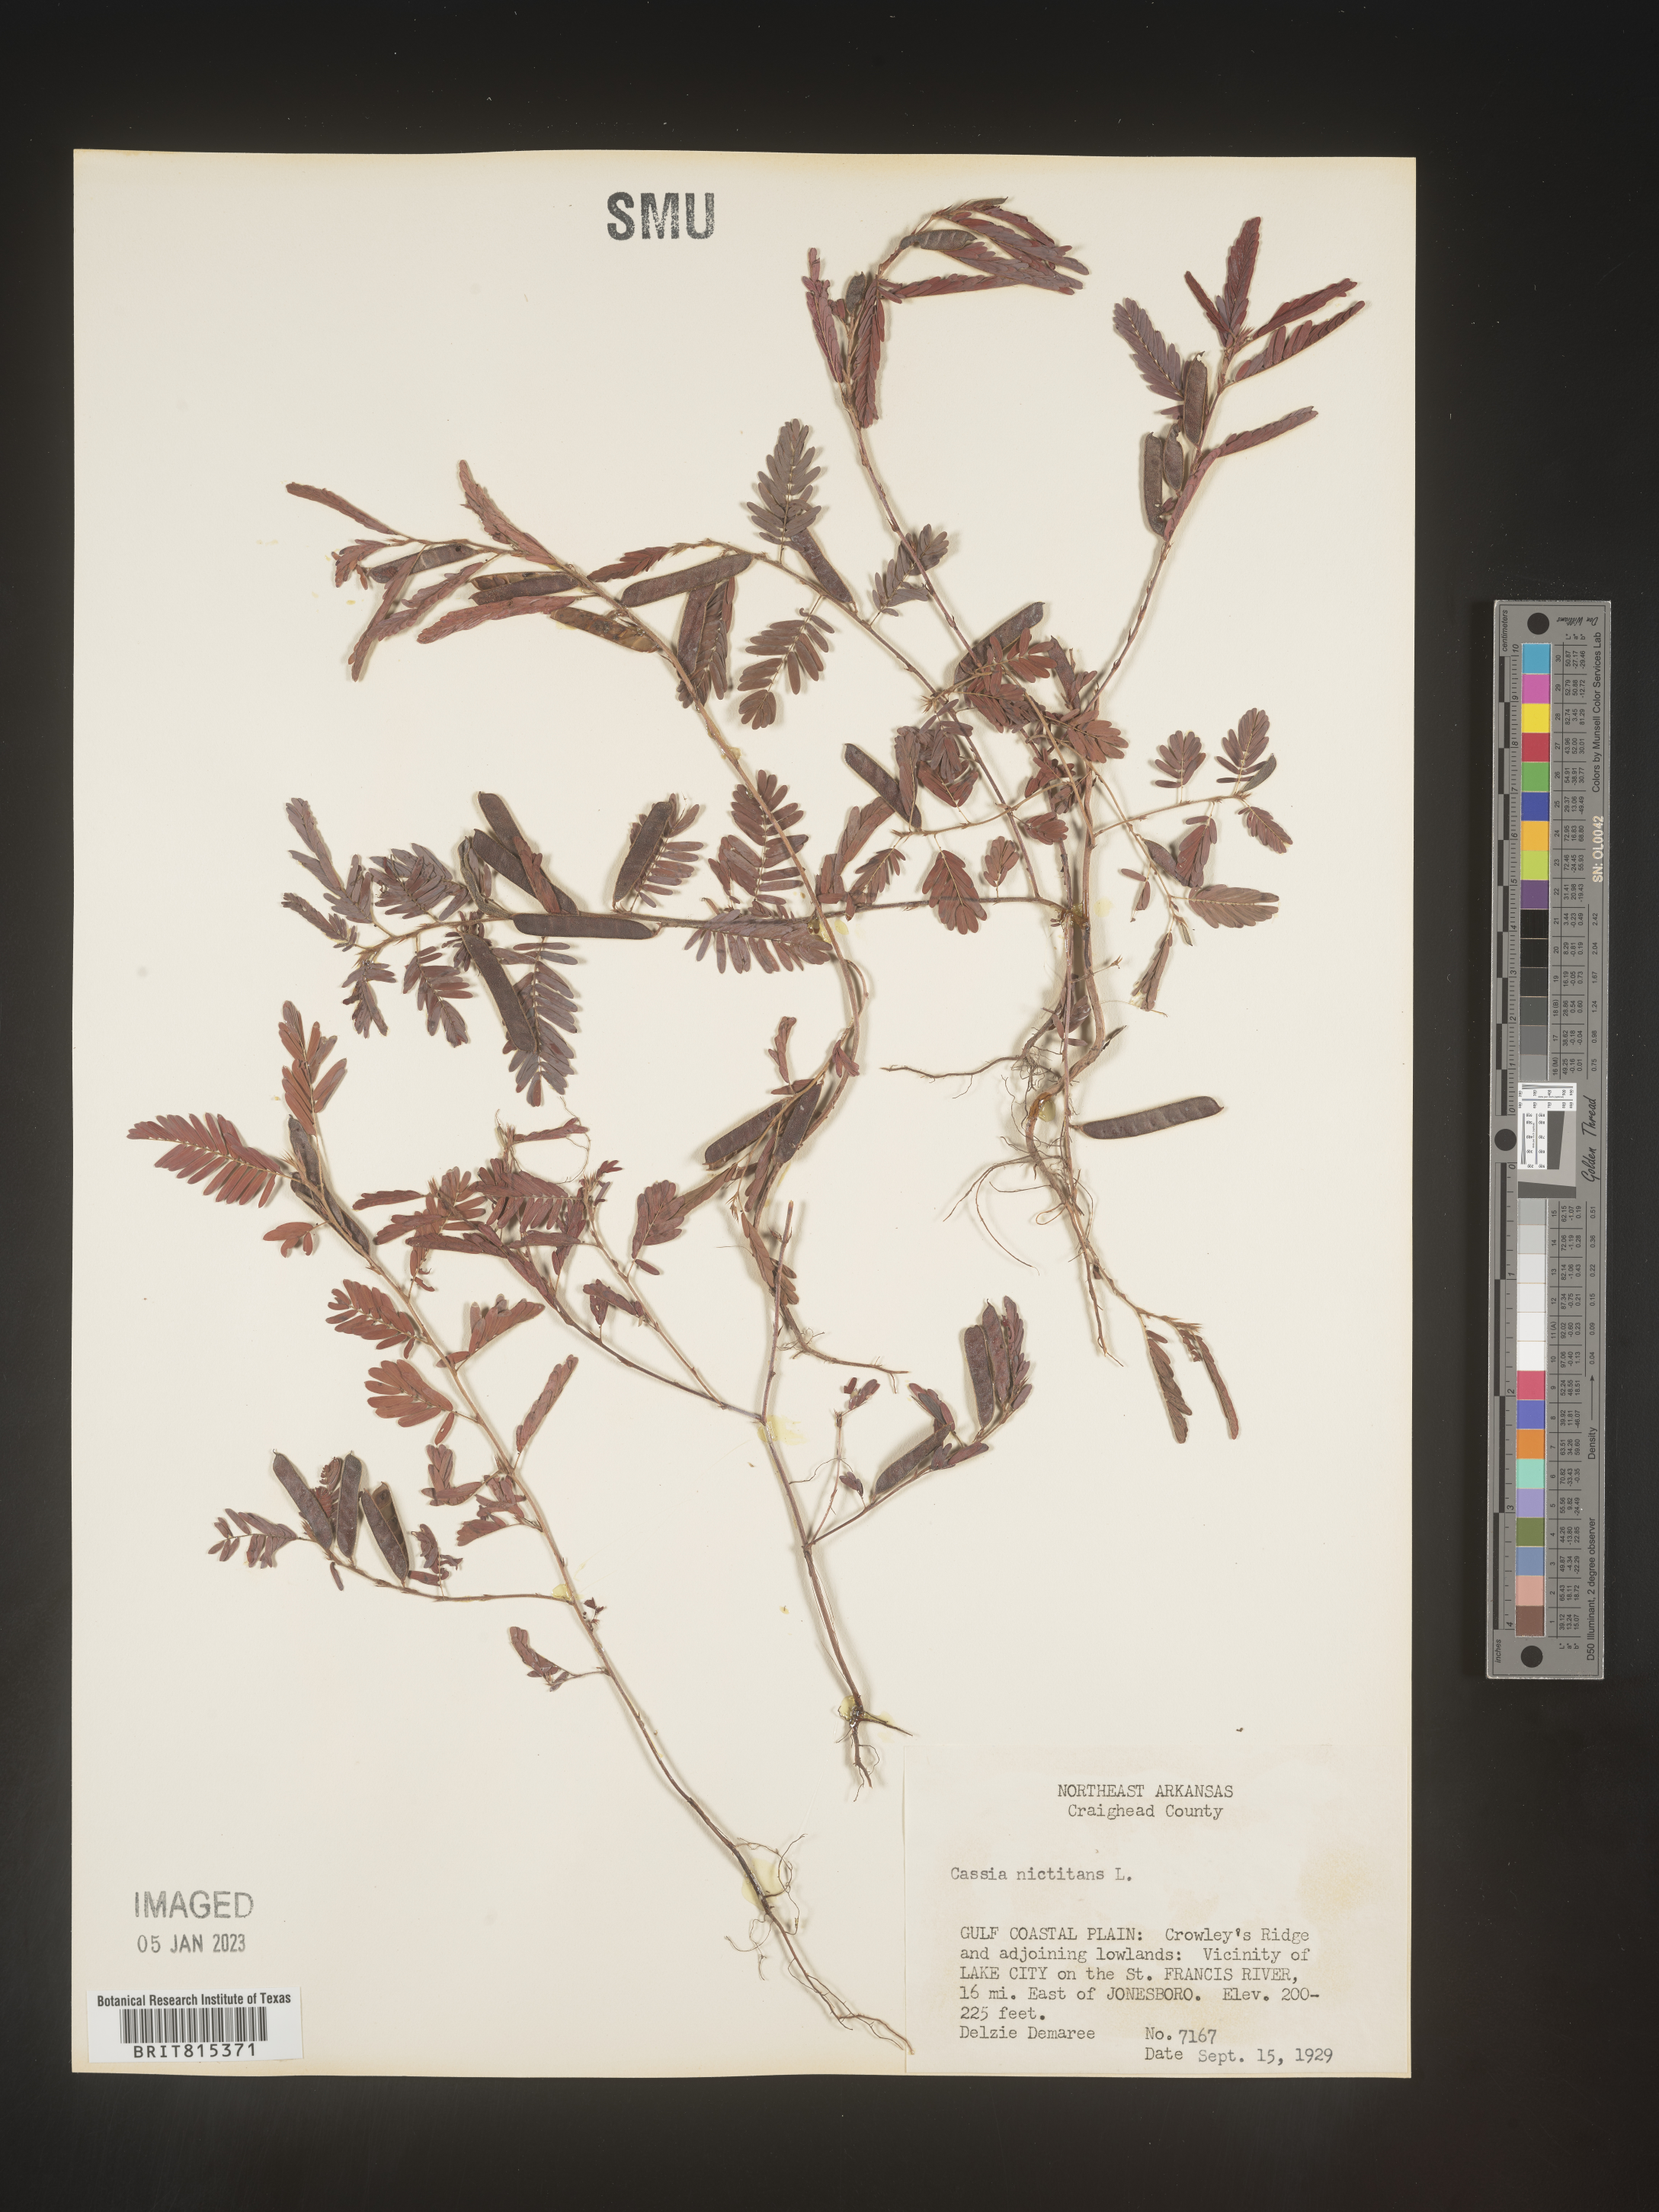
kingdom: Plantae
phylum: Tracheophyta
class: Magnoliopsida
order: Fabales
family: Fabaceae
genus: Chamaecrista
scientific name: Chamaecrista nictitans
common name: Sensitive cassia
